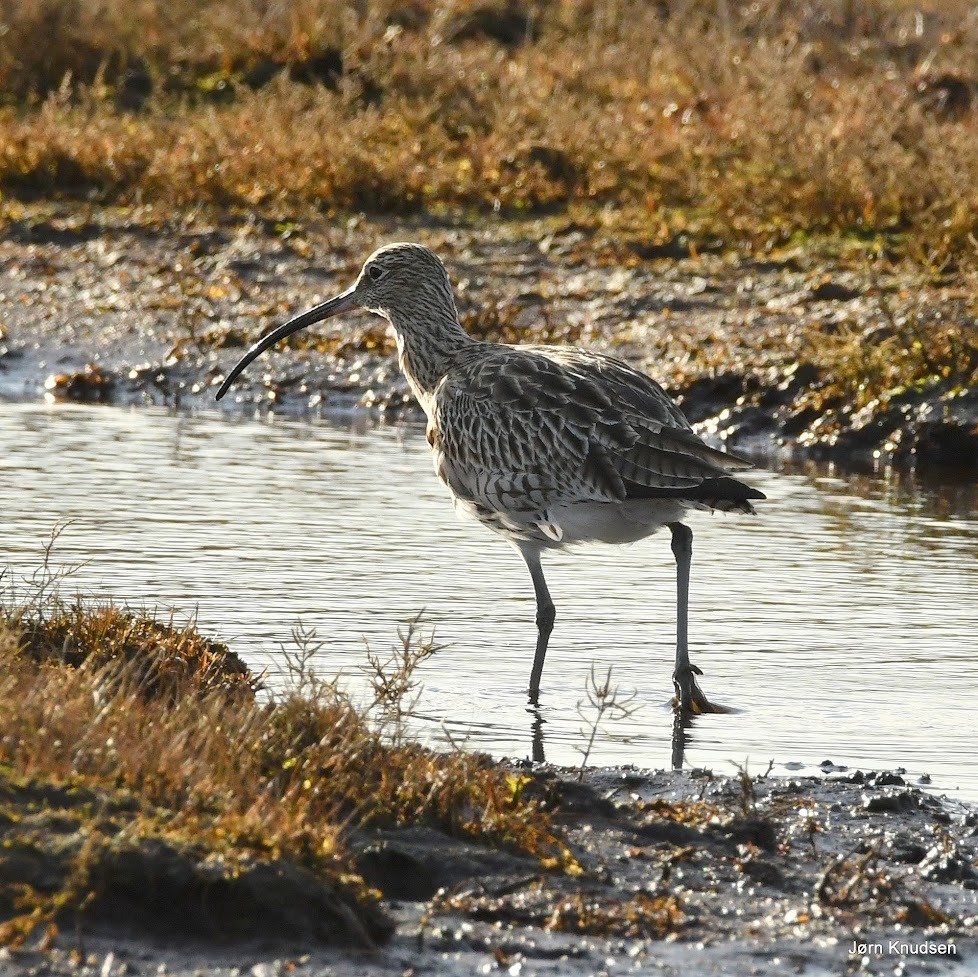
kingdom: Animalia
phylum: Chordata
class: Aves
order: Charadriiformes
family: Scolopacidae
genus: Numenius
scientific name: Numenius arquata
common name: Storspove
